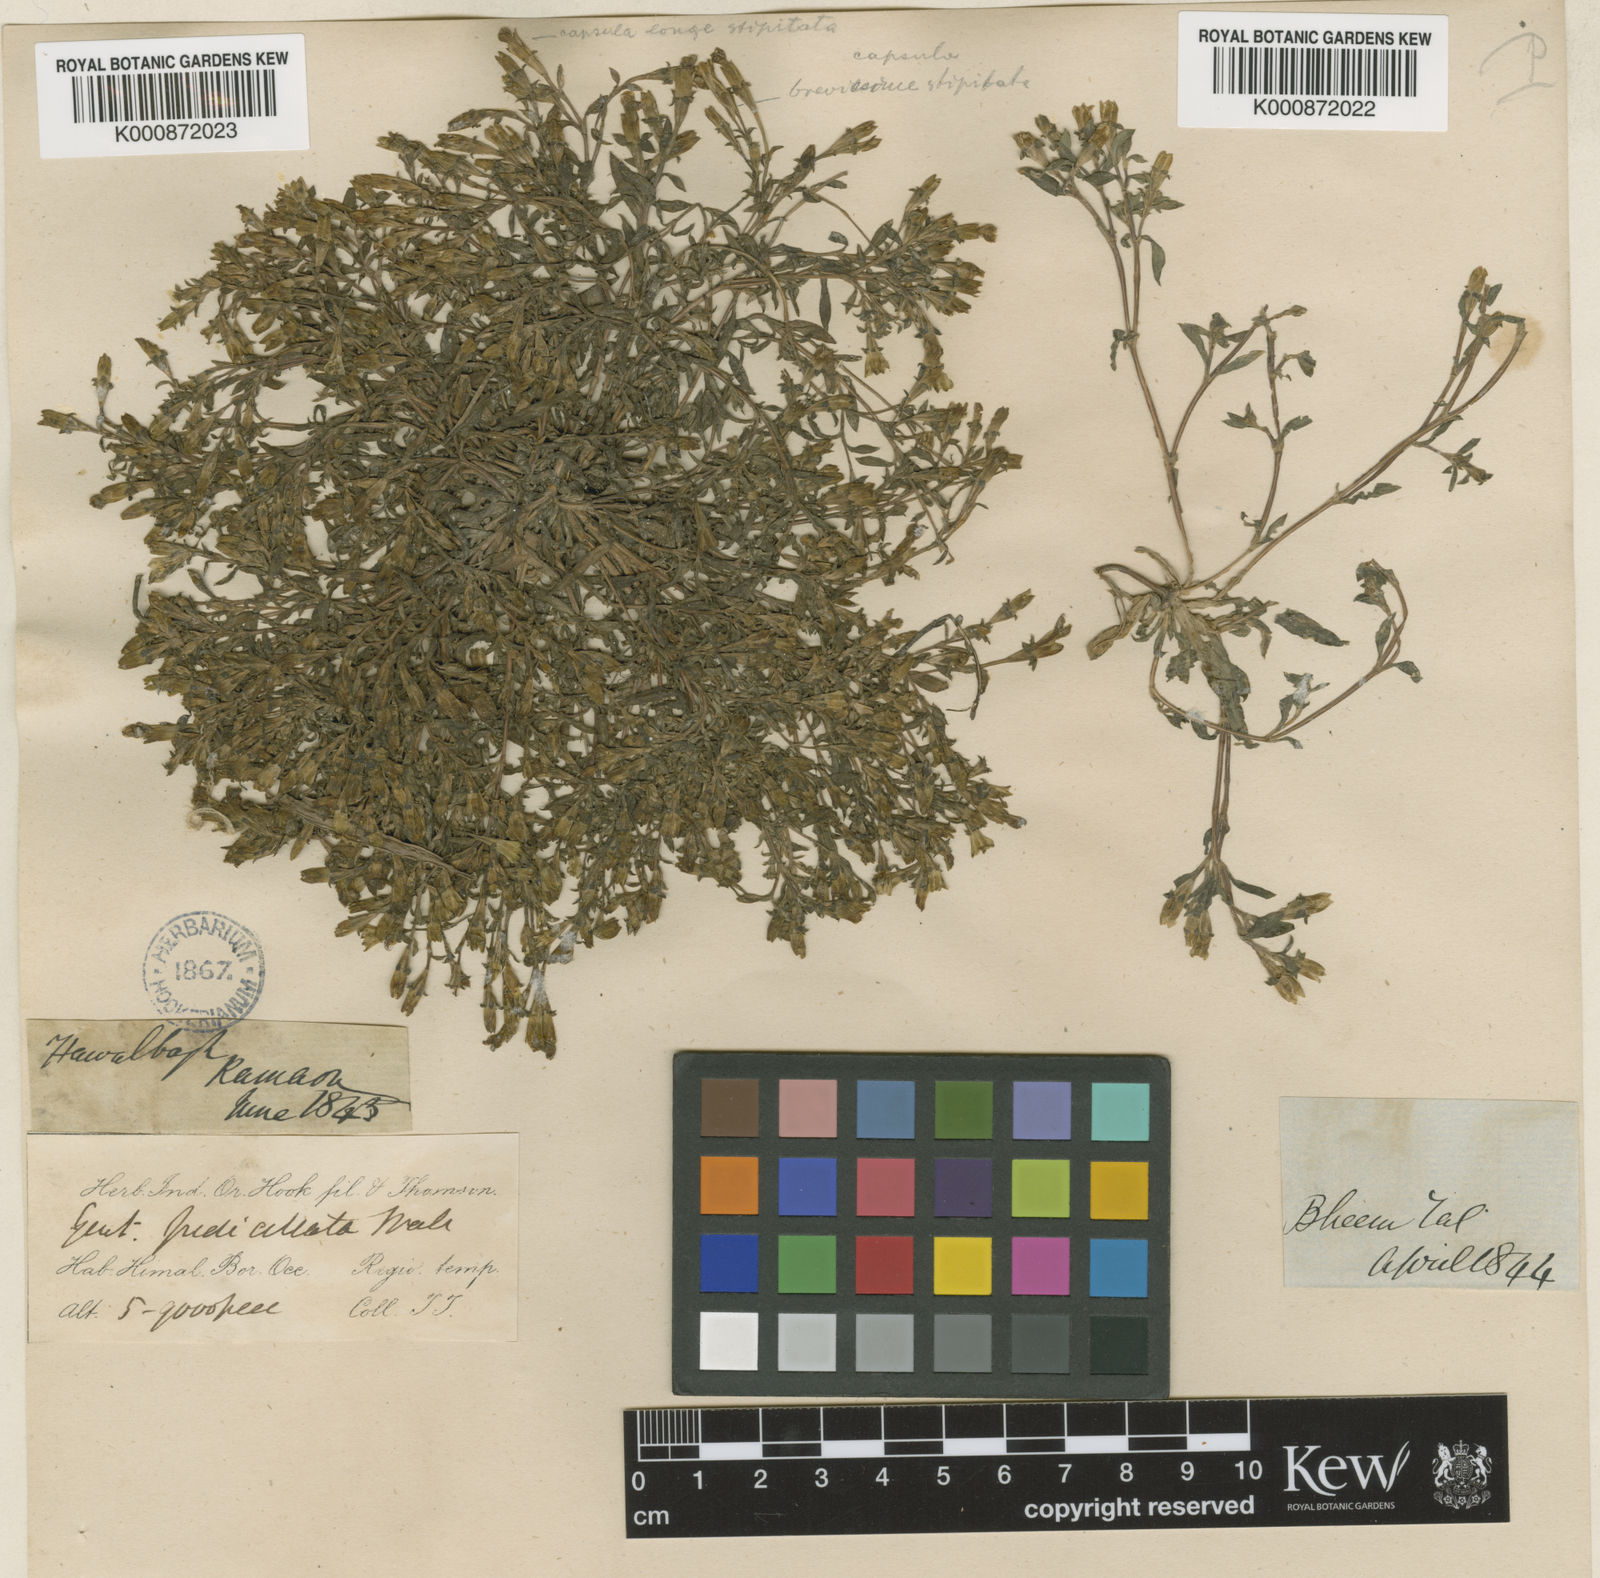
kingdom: Plantae
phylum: Tracheophyta
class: Magnoliopsida
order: Gentianales
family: Gentianaceae
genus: Gentiana
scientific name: Gentiana pedicellata
